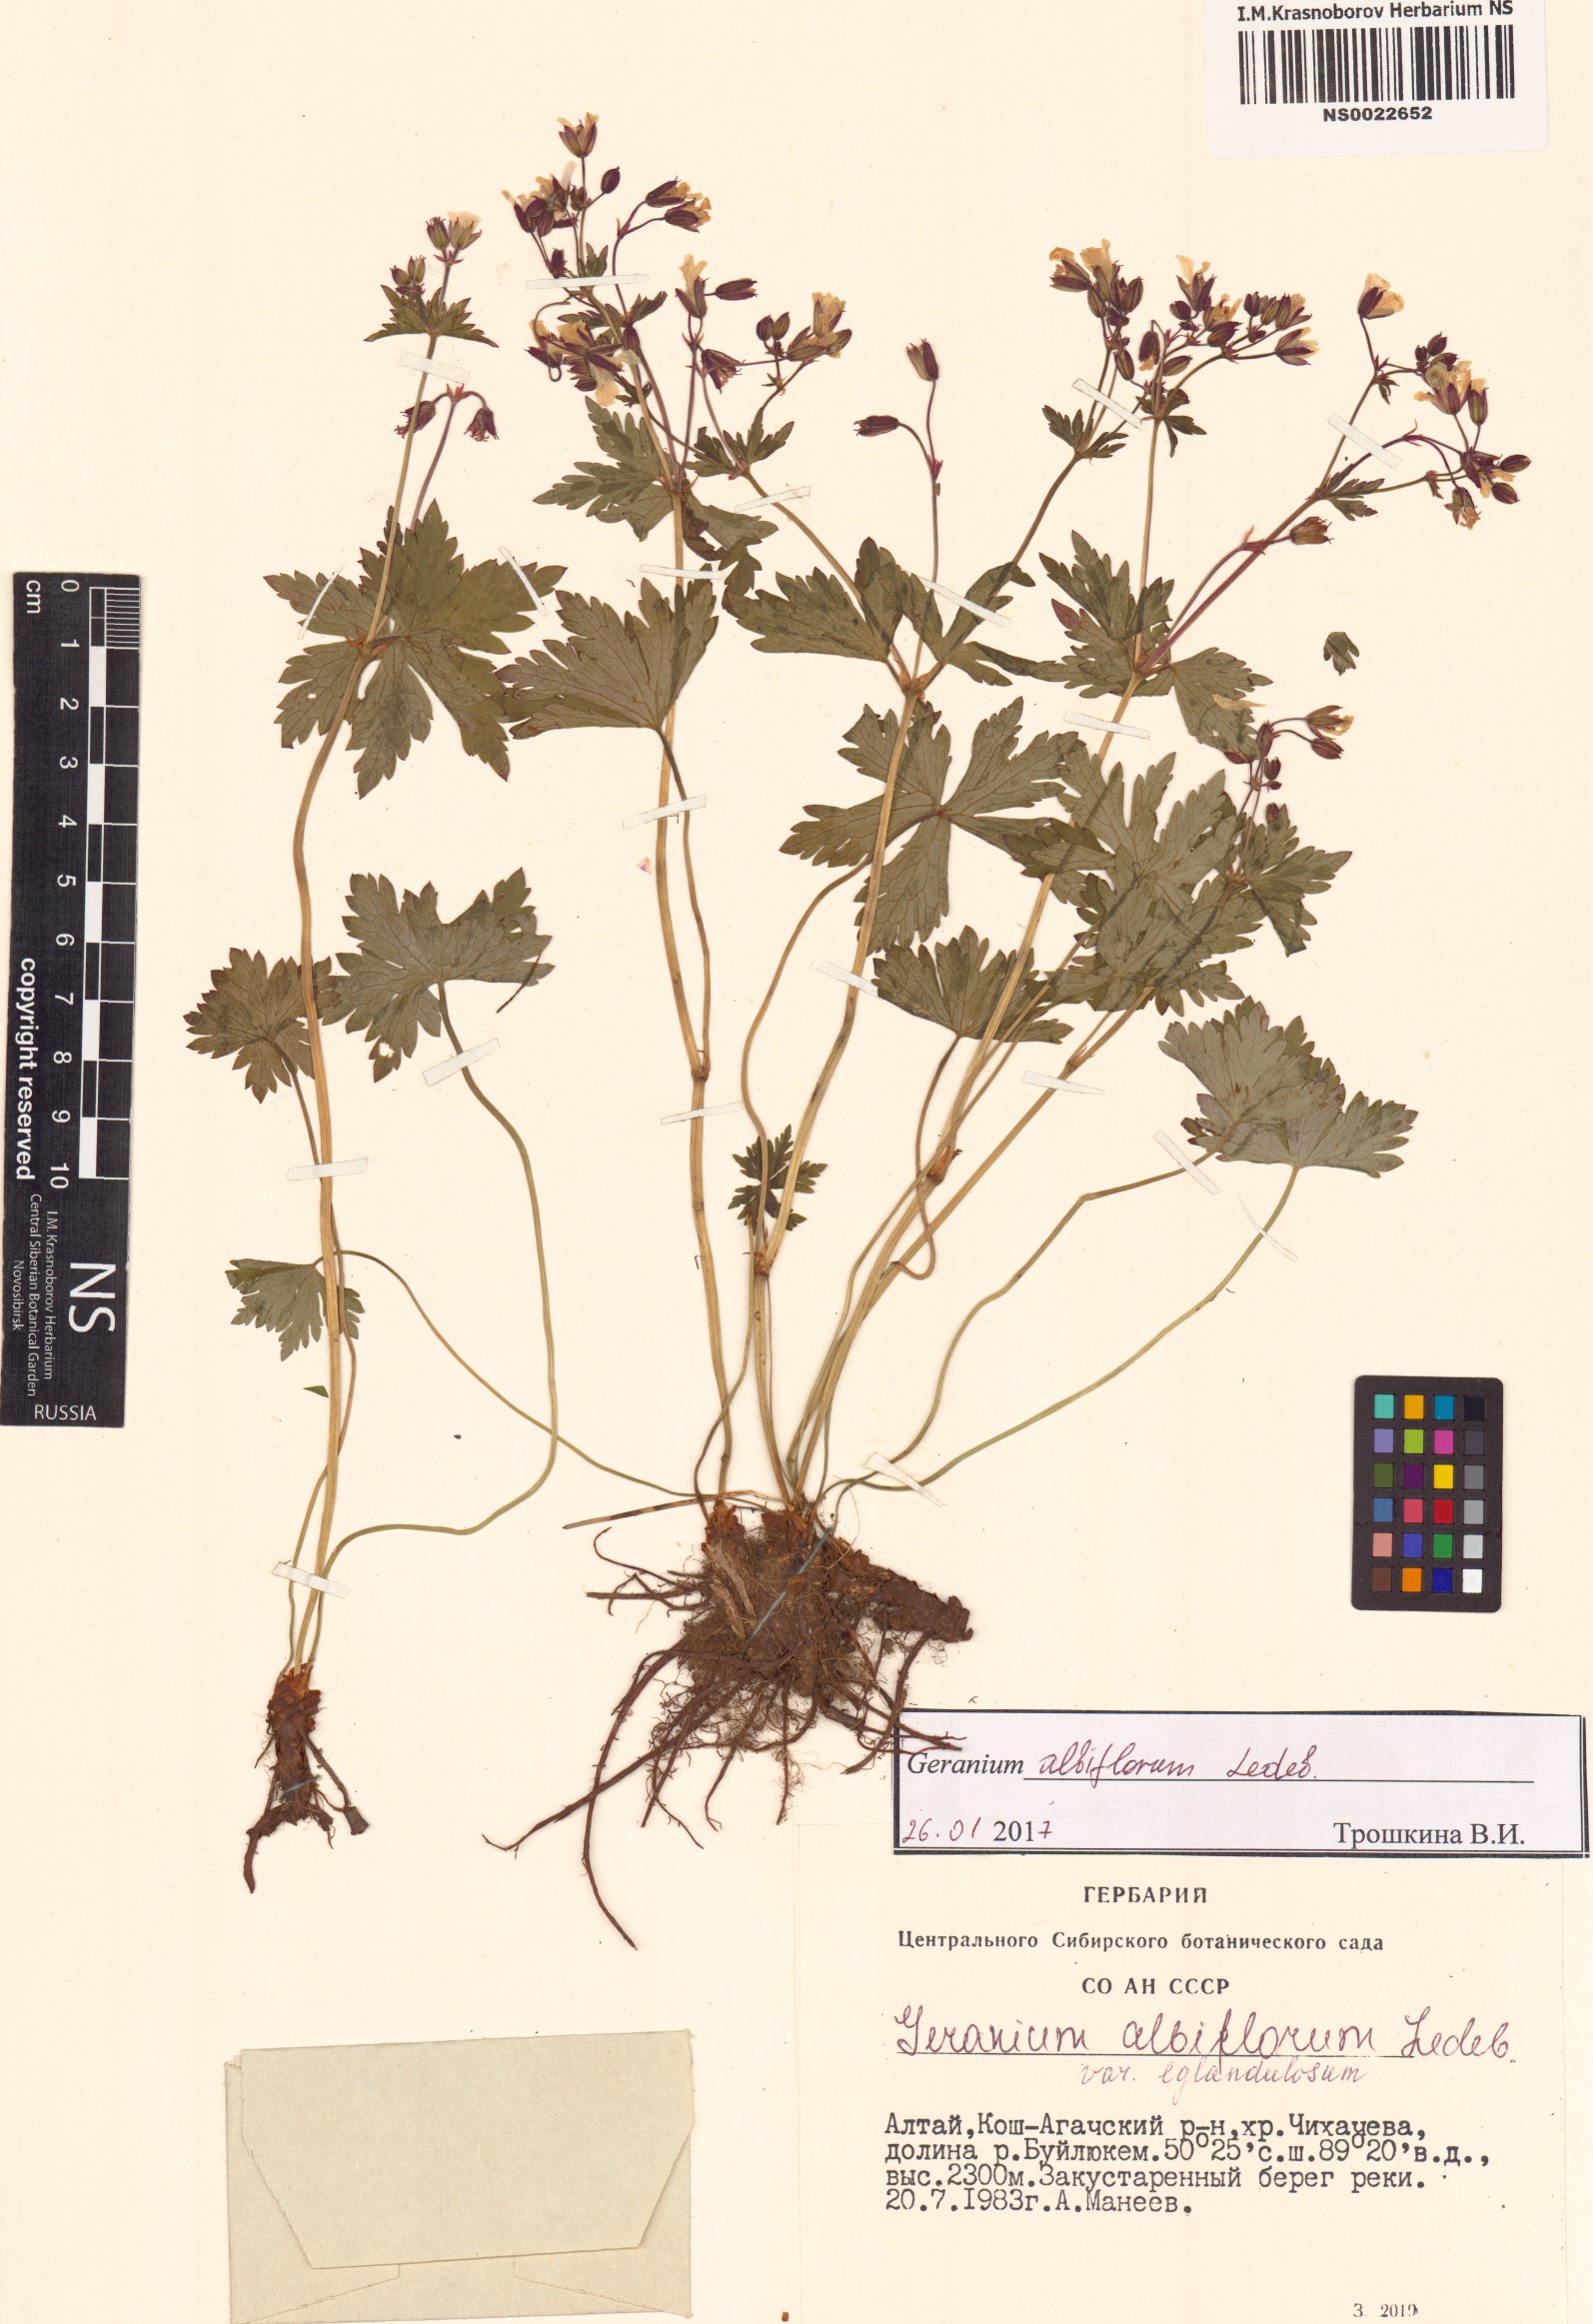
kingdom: Plantae
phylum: Tracheophyta
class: Magnoliopsida
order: Geraniales
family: Geraniaceae
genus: Geranium
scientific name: Geranium albiflorum
